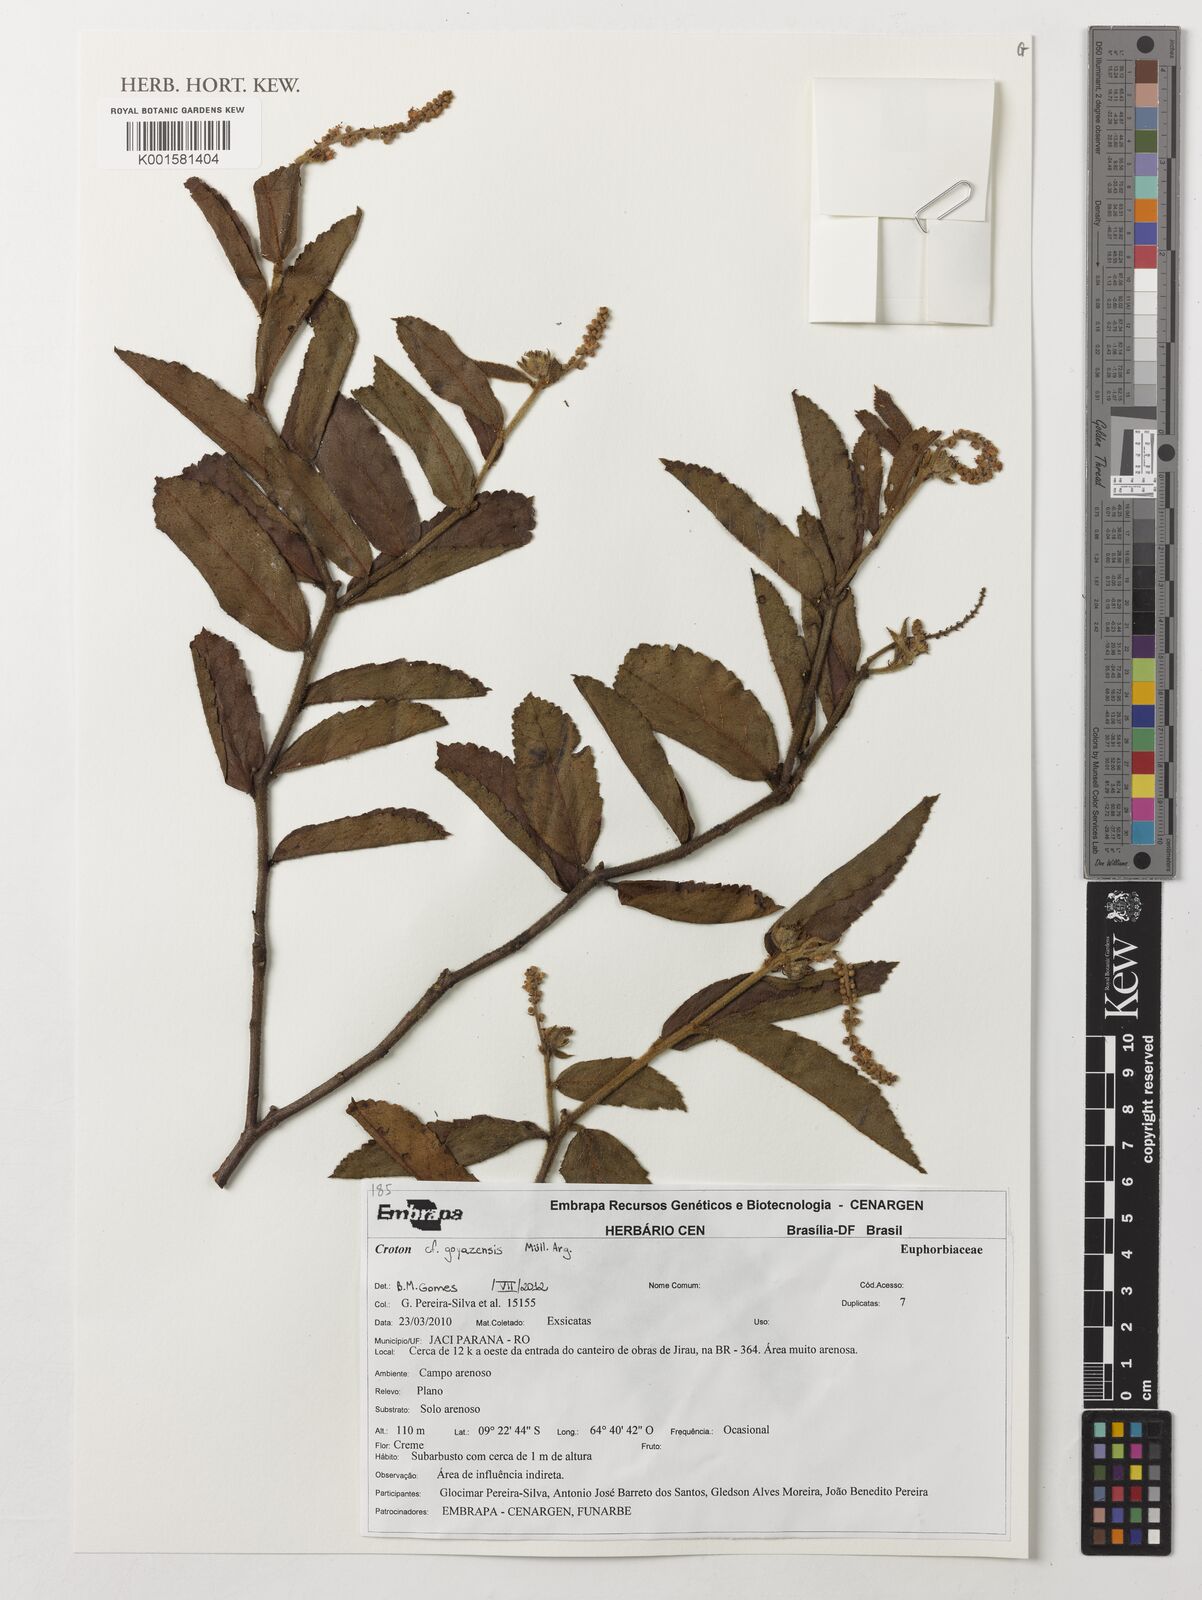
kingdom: Plantae
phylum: Tracheophyta
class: Magnoliopsida
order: Malpighiales
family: Euphorbiaceae
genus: Croton
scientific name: Croton goyazensis
